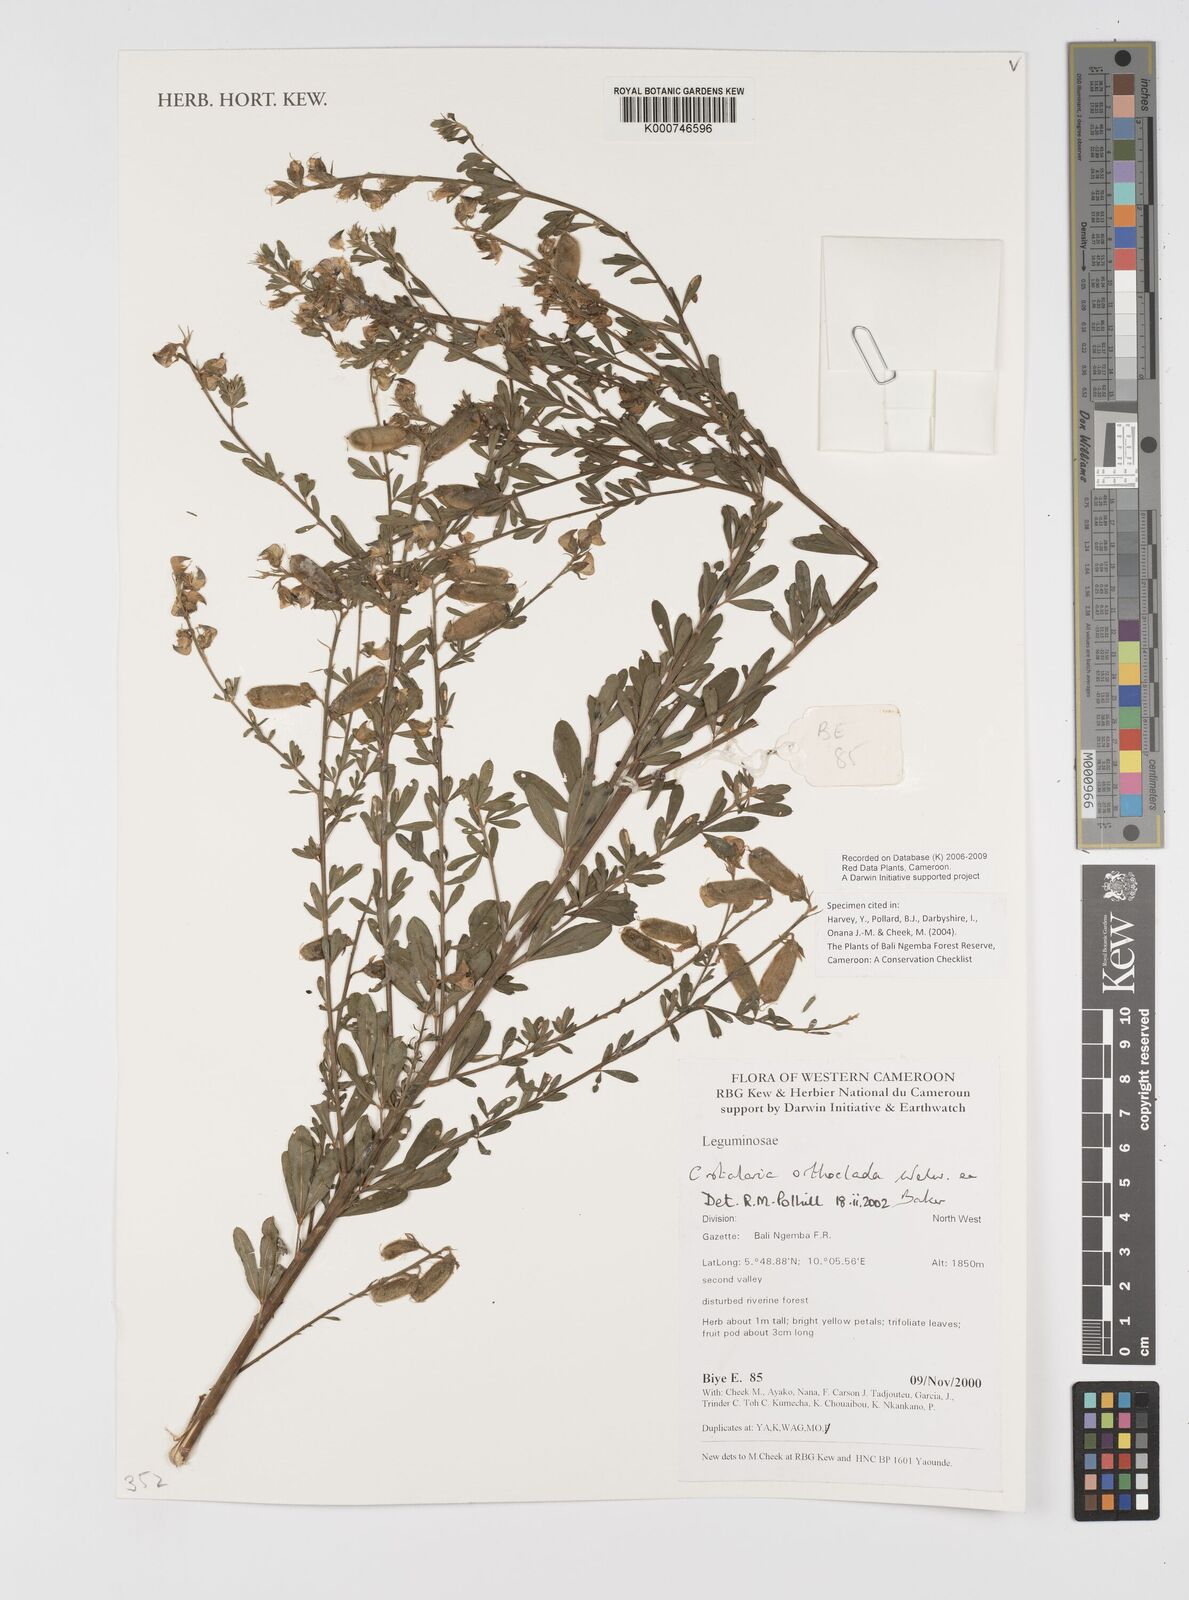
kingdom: Plantae
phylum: Tracheophyta
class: Magnoliopsida
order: Fabales
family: Fabaceae
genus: Crotalaria
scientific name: Crotalaria orthoclada
